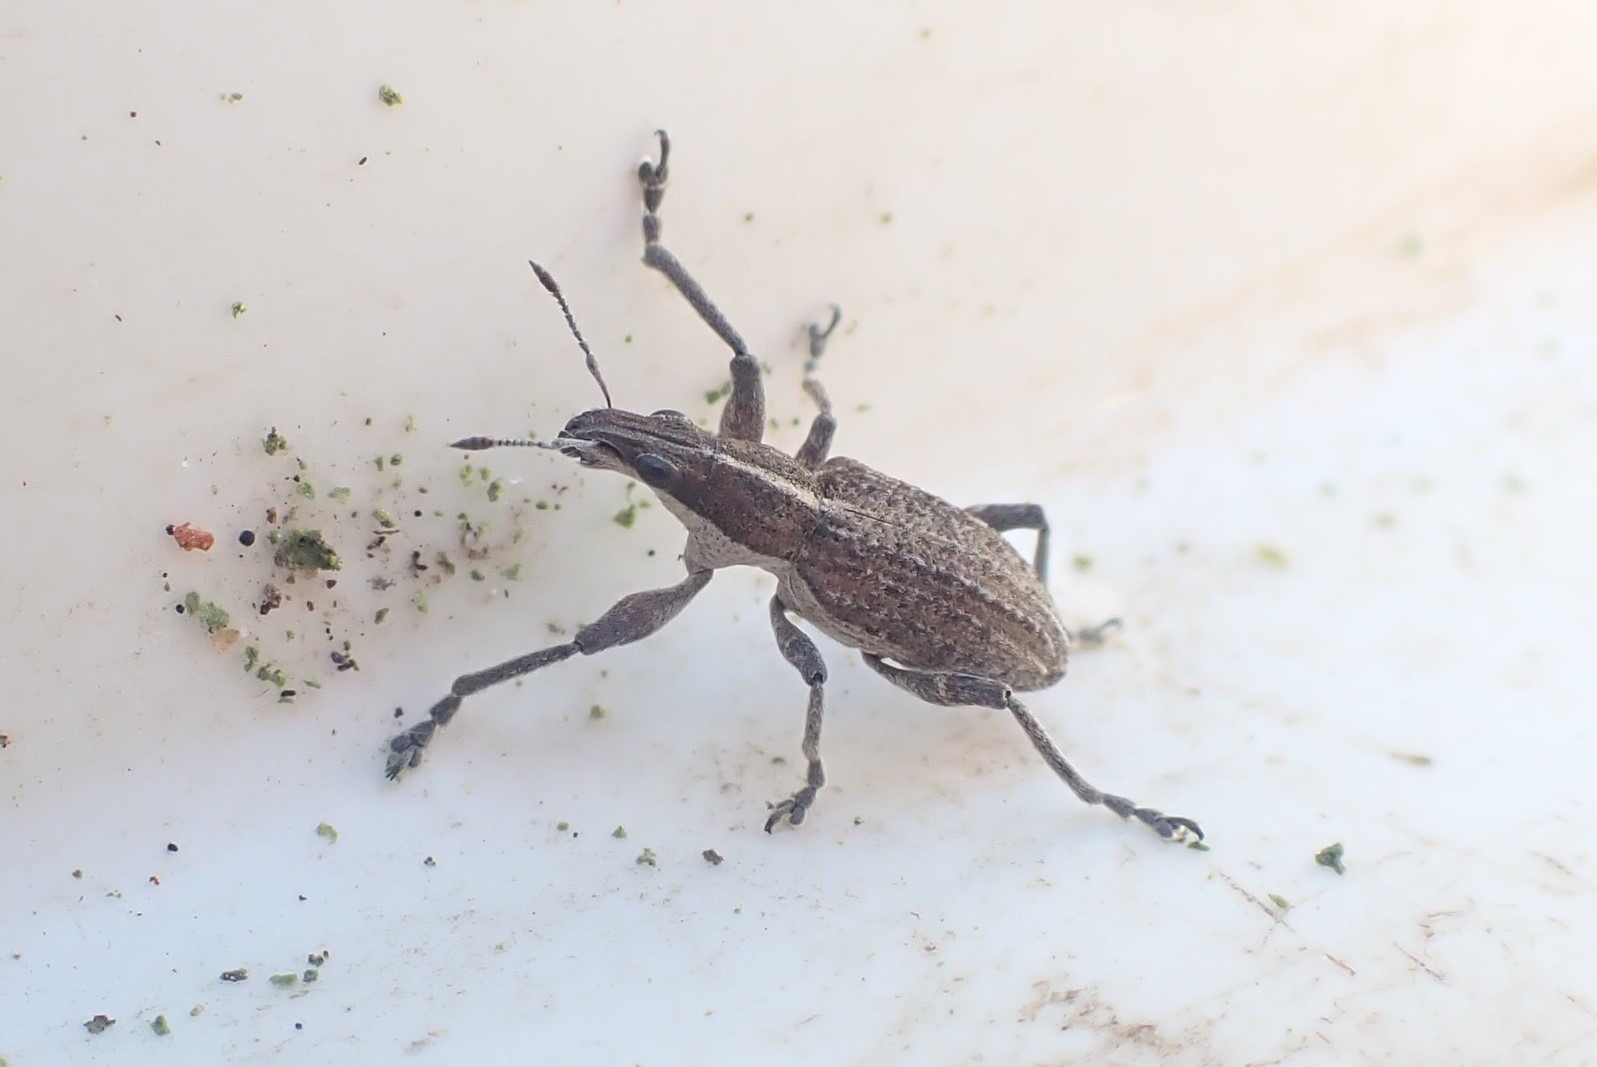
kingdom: Animalia
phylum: Arthropoda
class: Insecta
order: Coleoptera
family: Curculionidae
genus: Charagmus
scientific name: Charagmus gressorius
